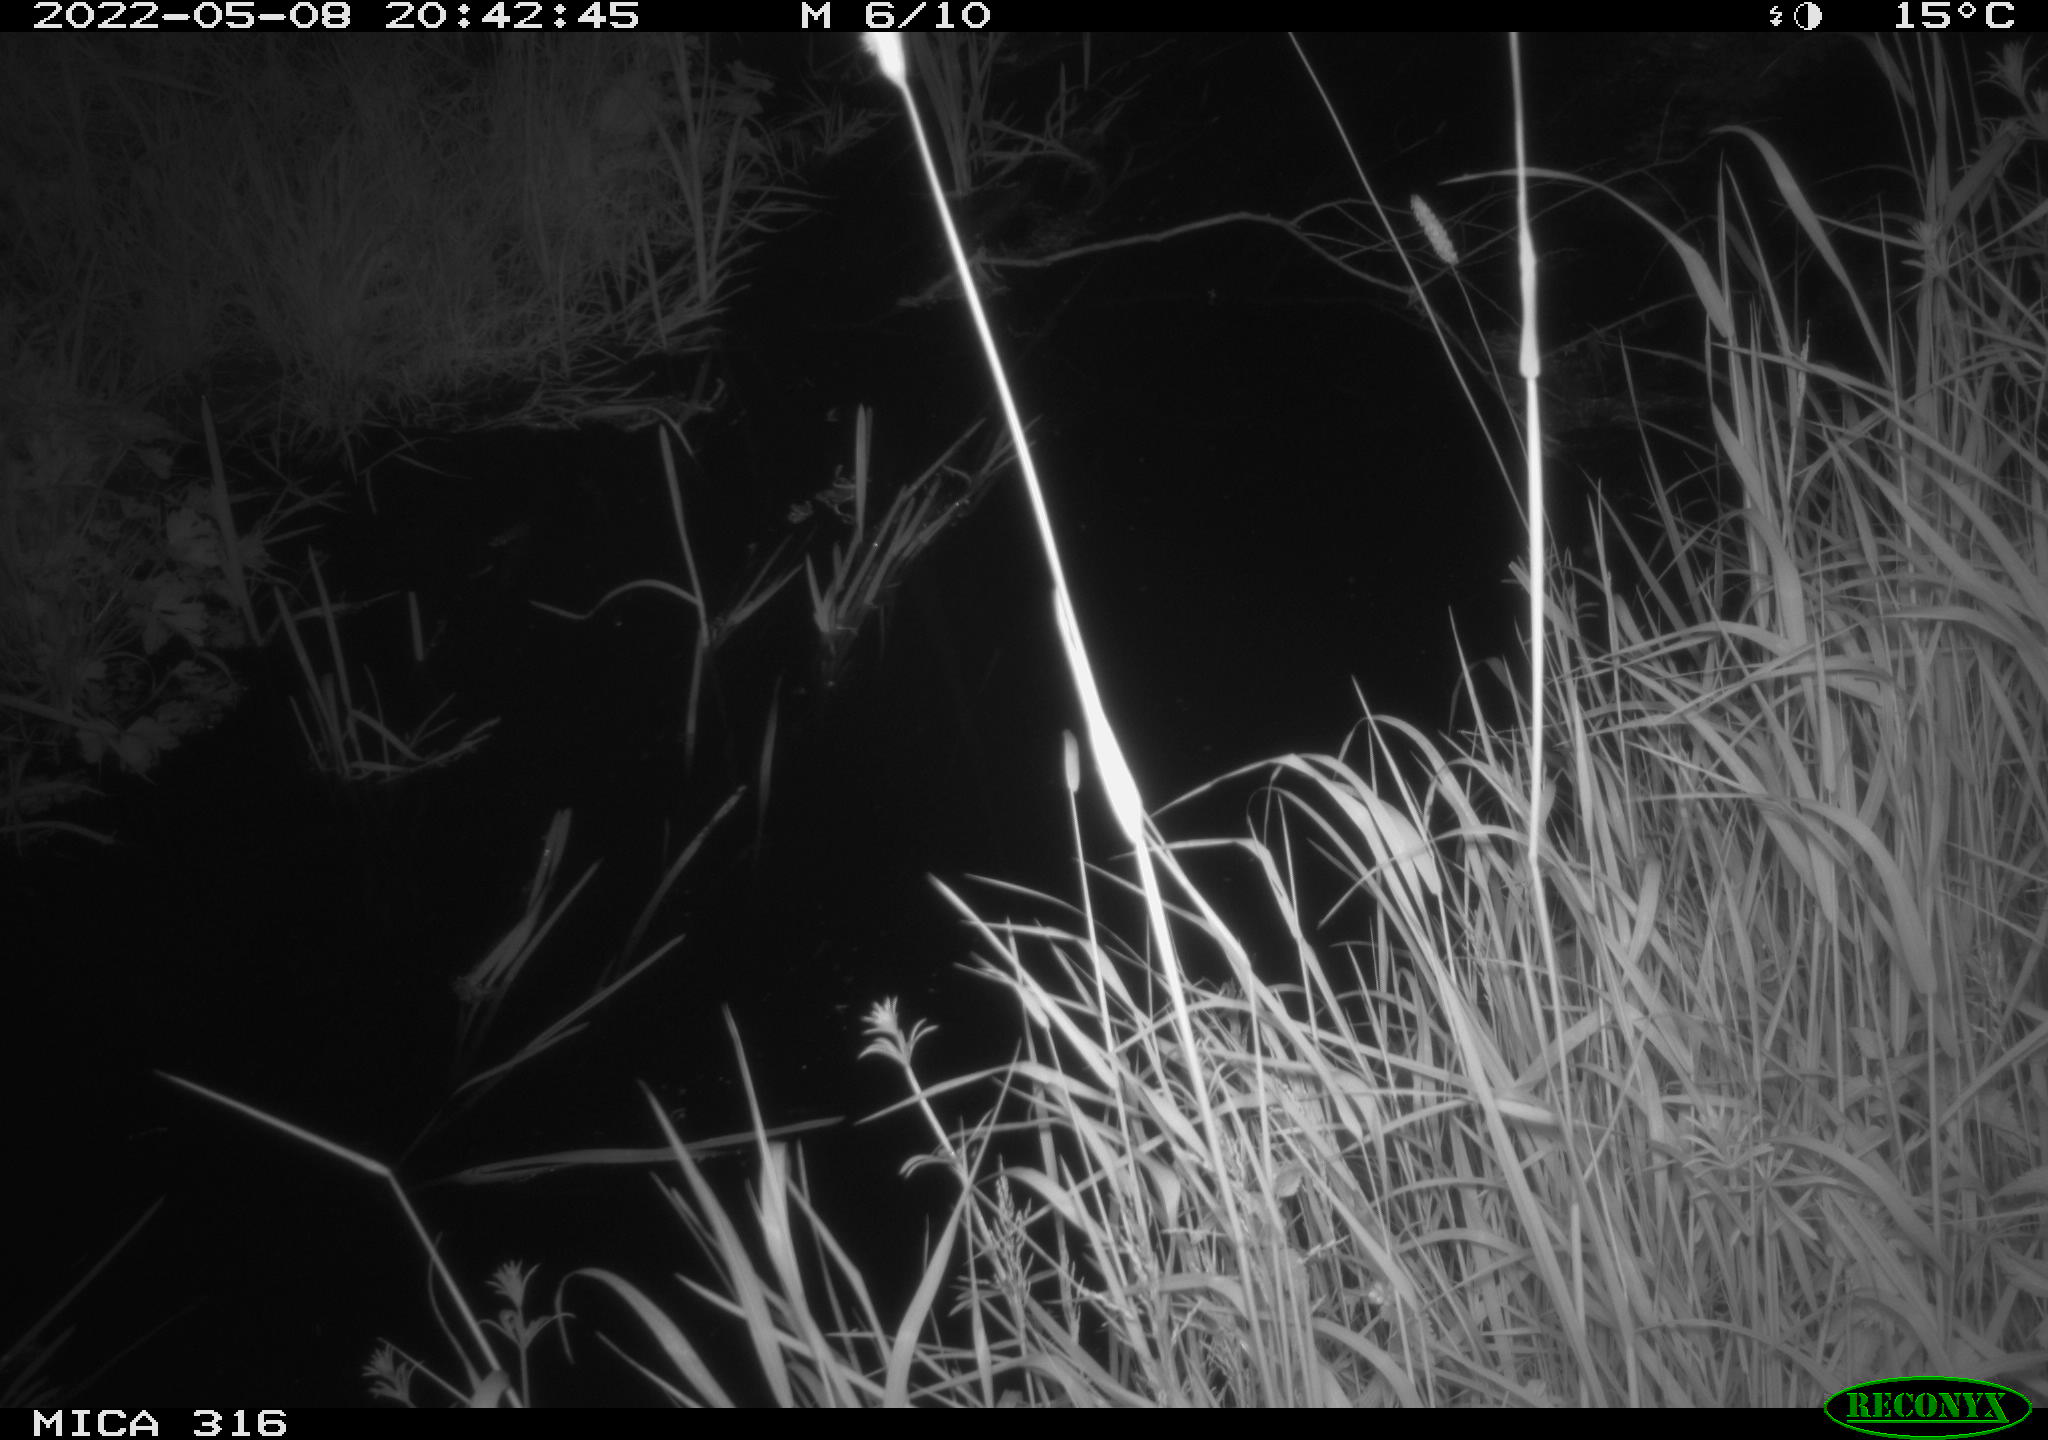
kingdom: Animalia
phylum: Chordata
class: Aves
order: Anseriformes
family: Anatidae
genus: Anas
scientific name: Anas platyrhynchos
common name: Mallard
